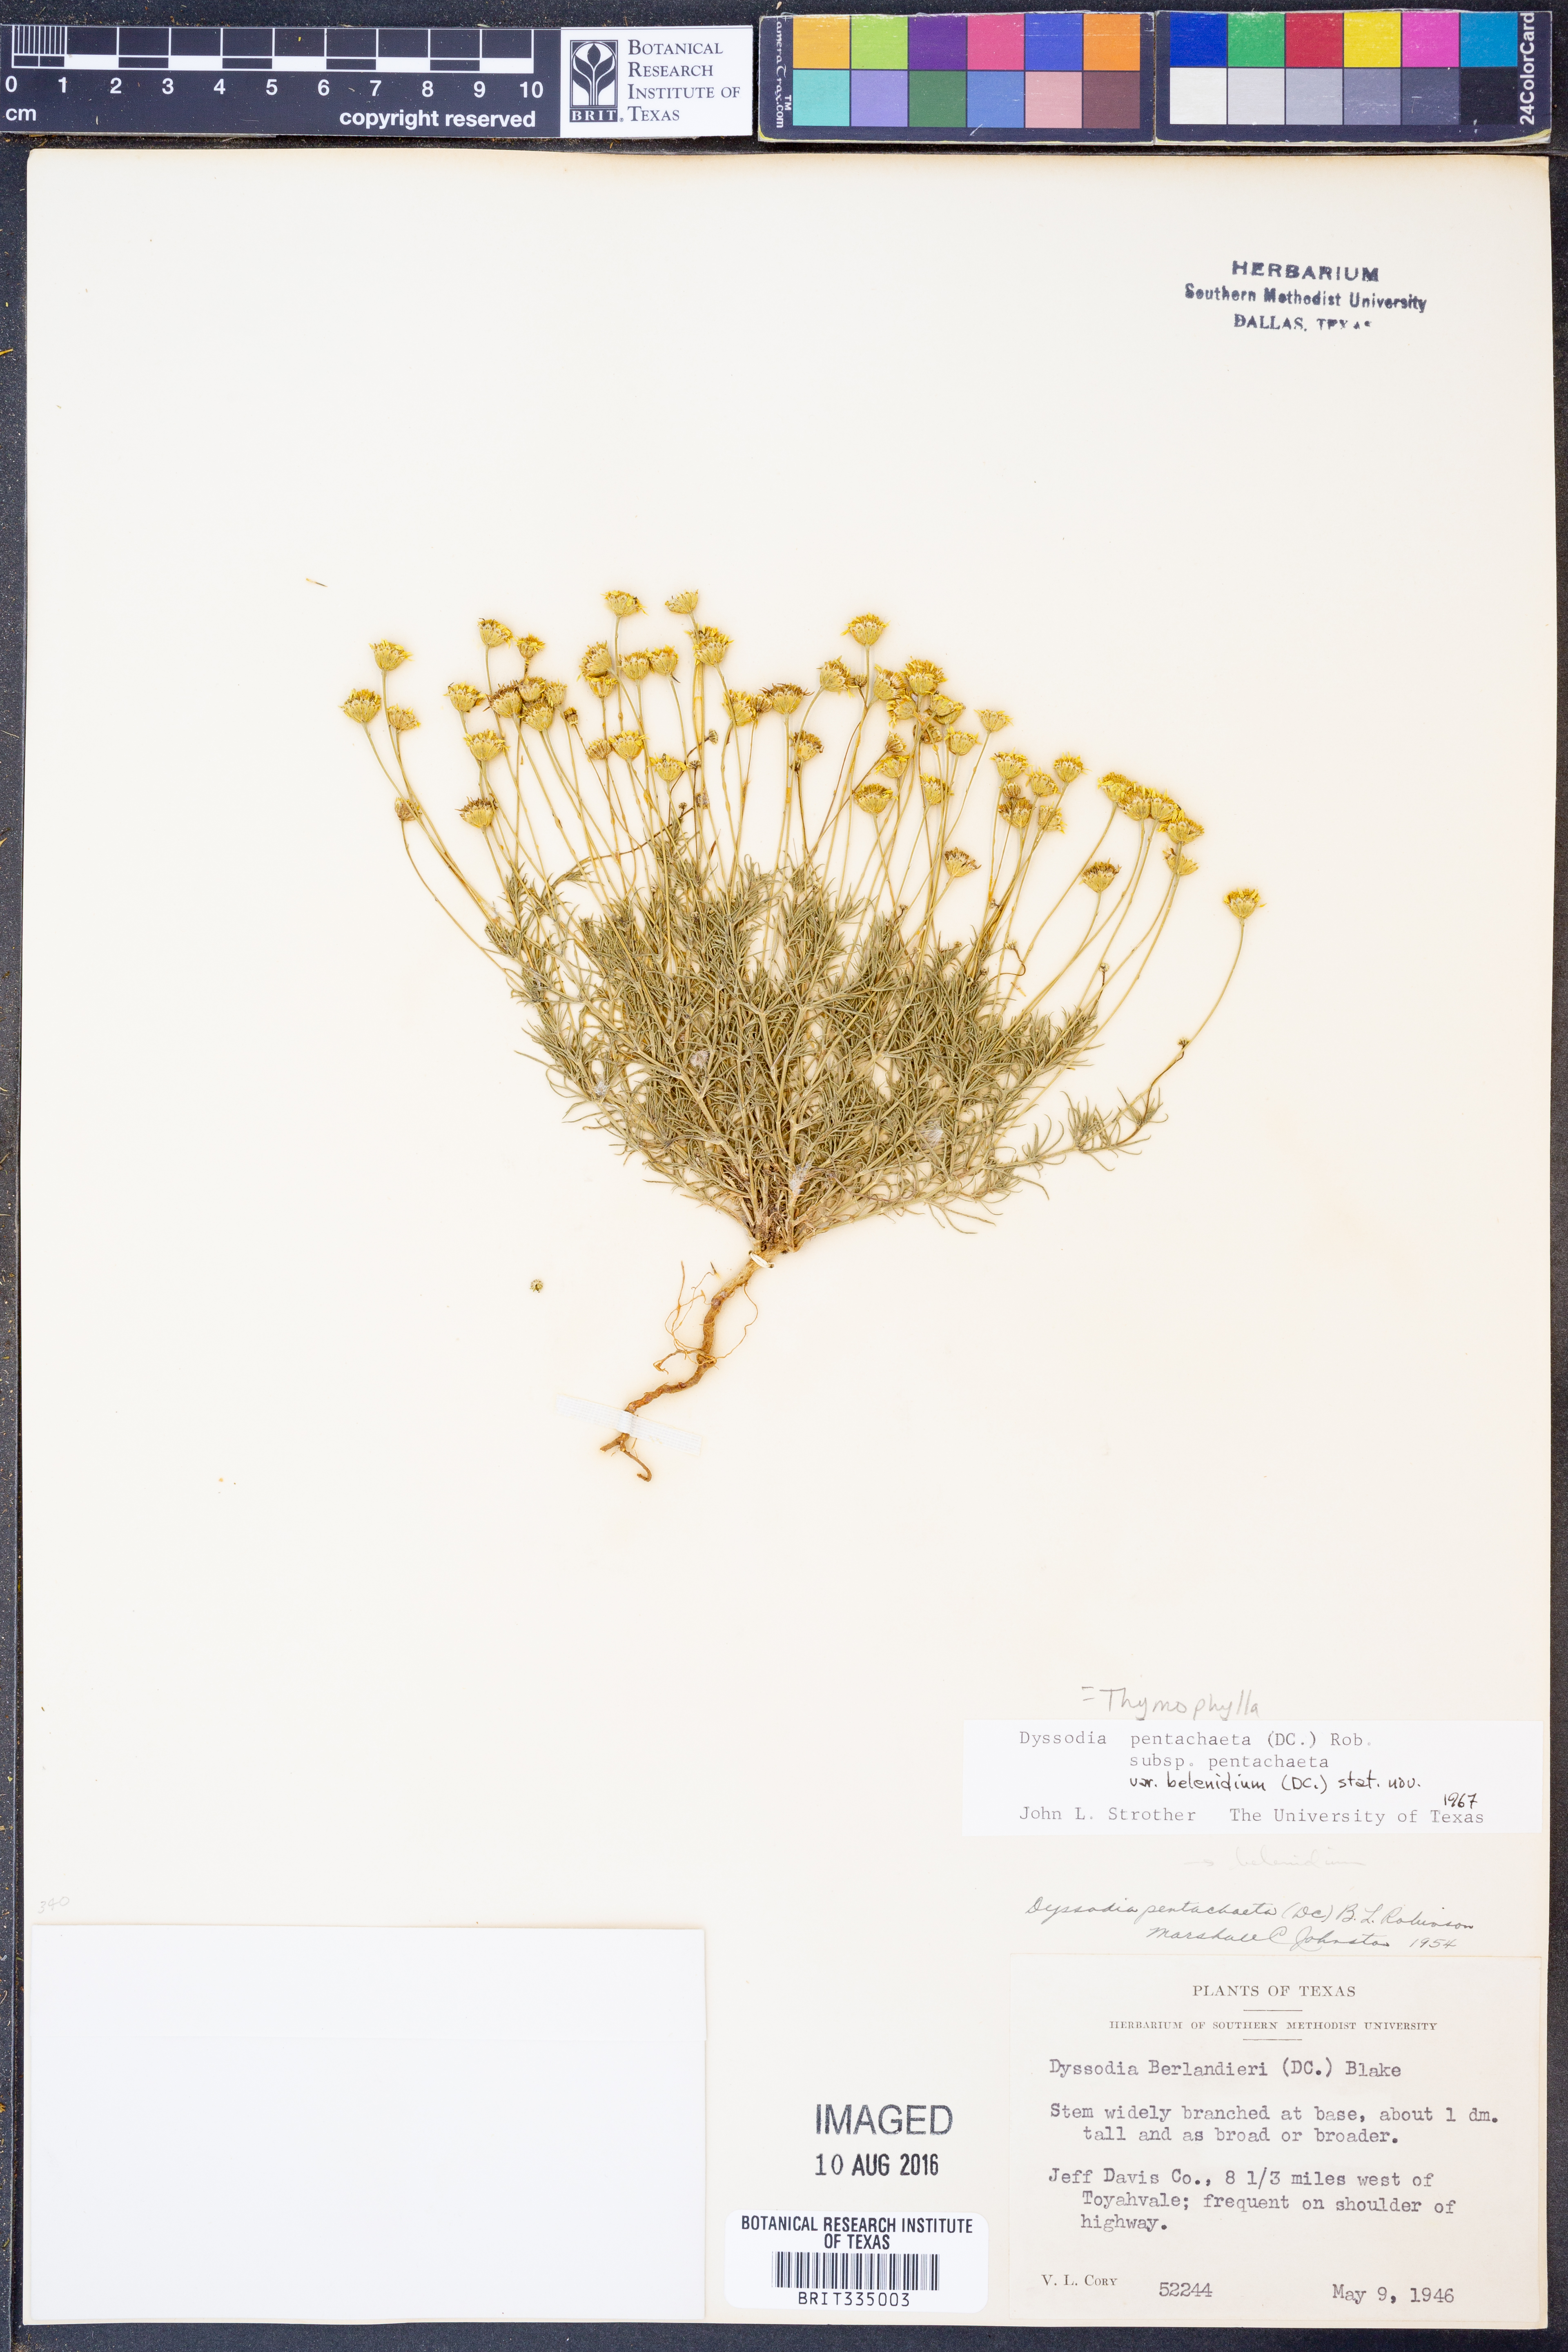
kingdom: Plantae
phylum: Tracheophyta
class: Magnoliopsida
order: Asterales
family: Asteraceae
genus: Thymophylla
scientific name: Thymophylla pentachaeta
